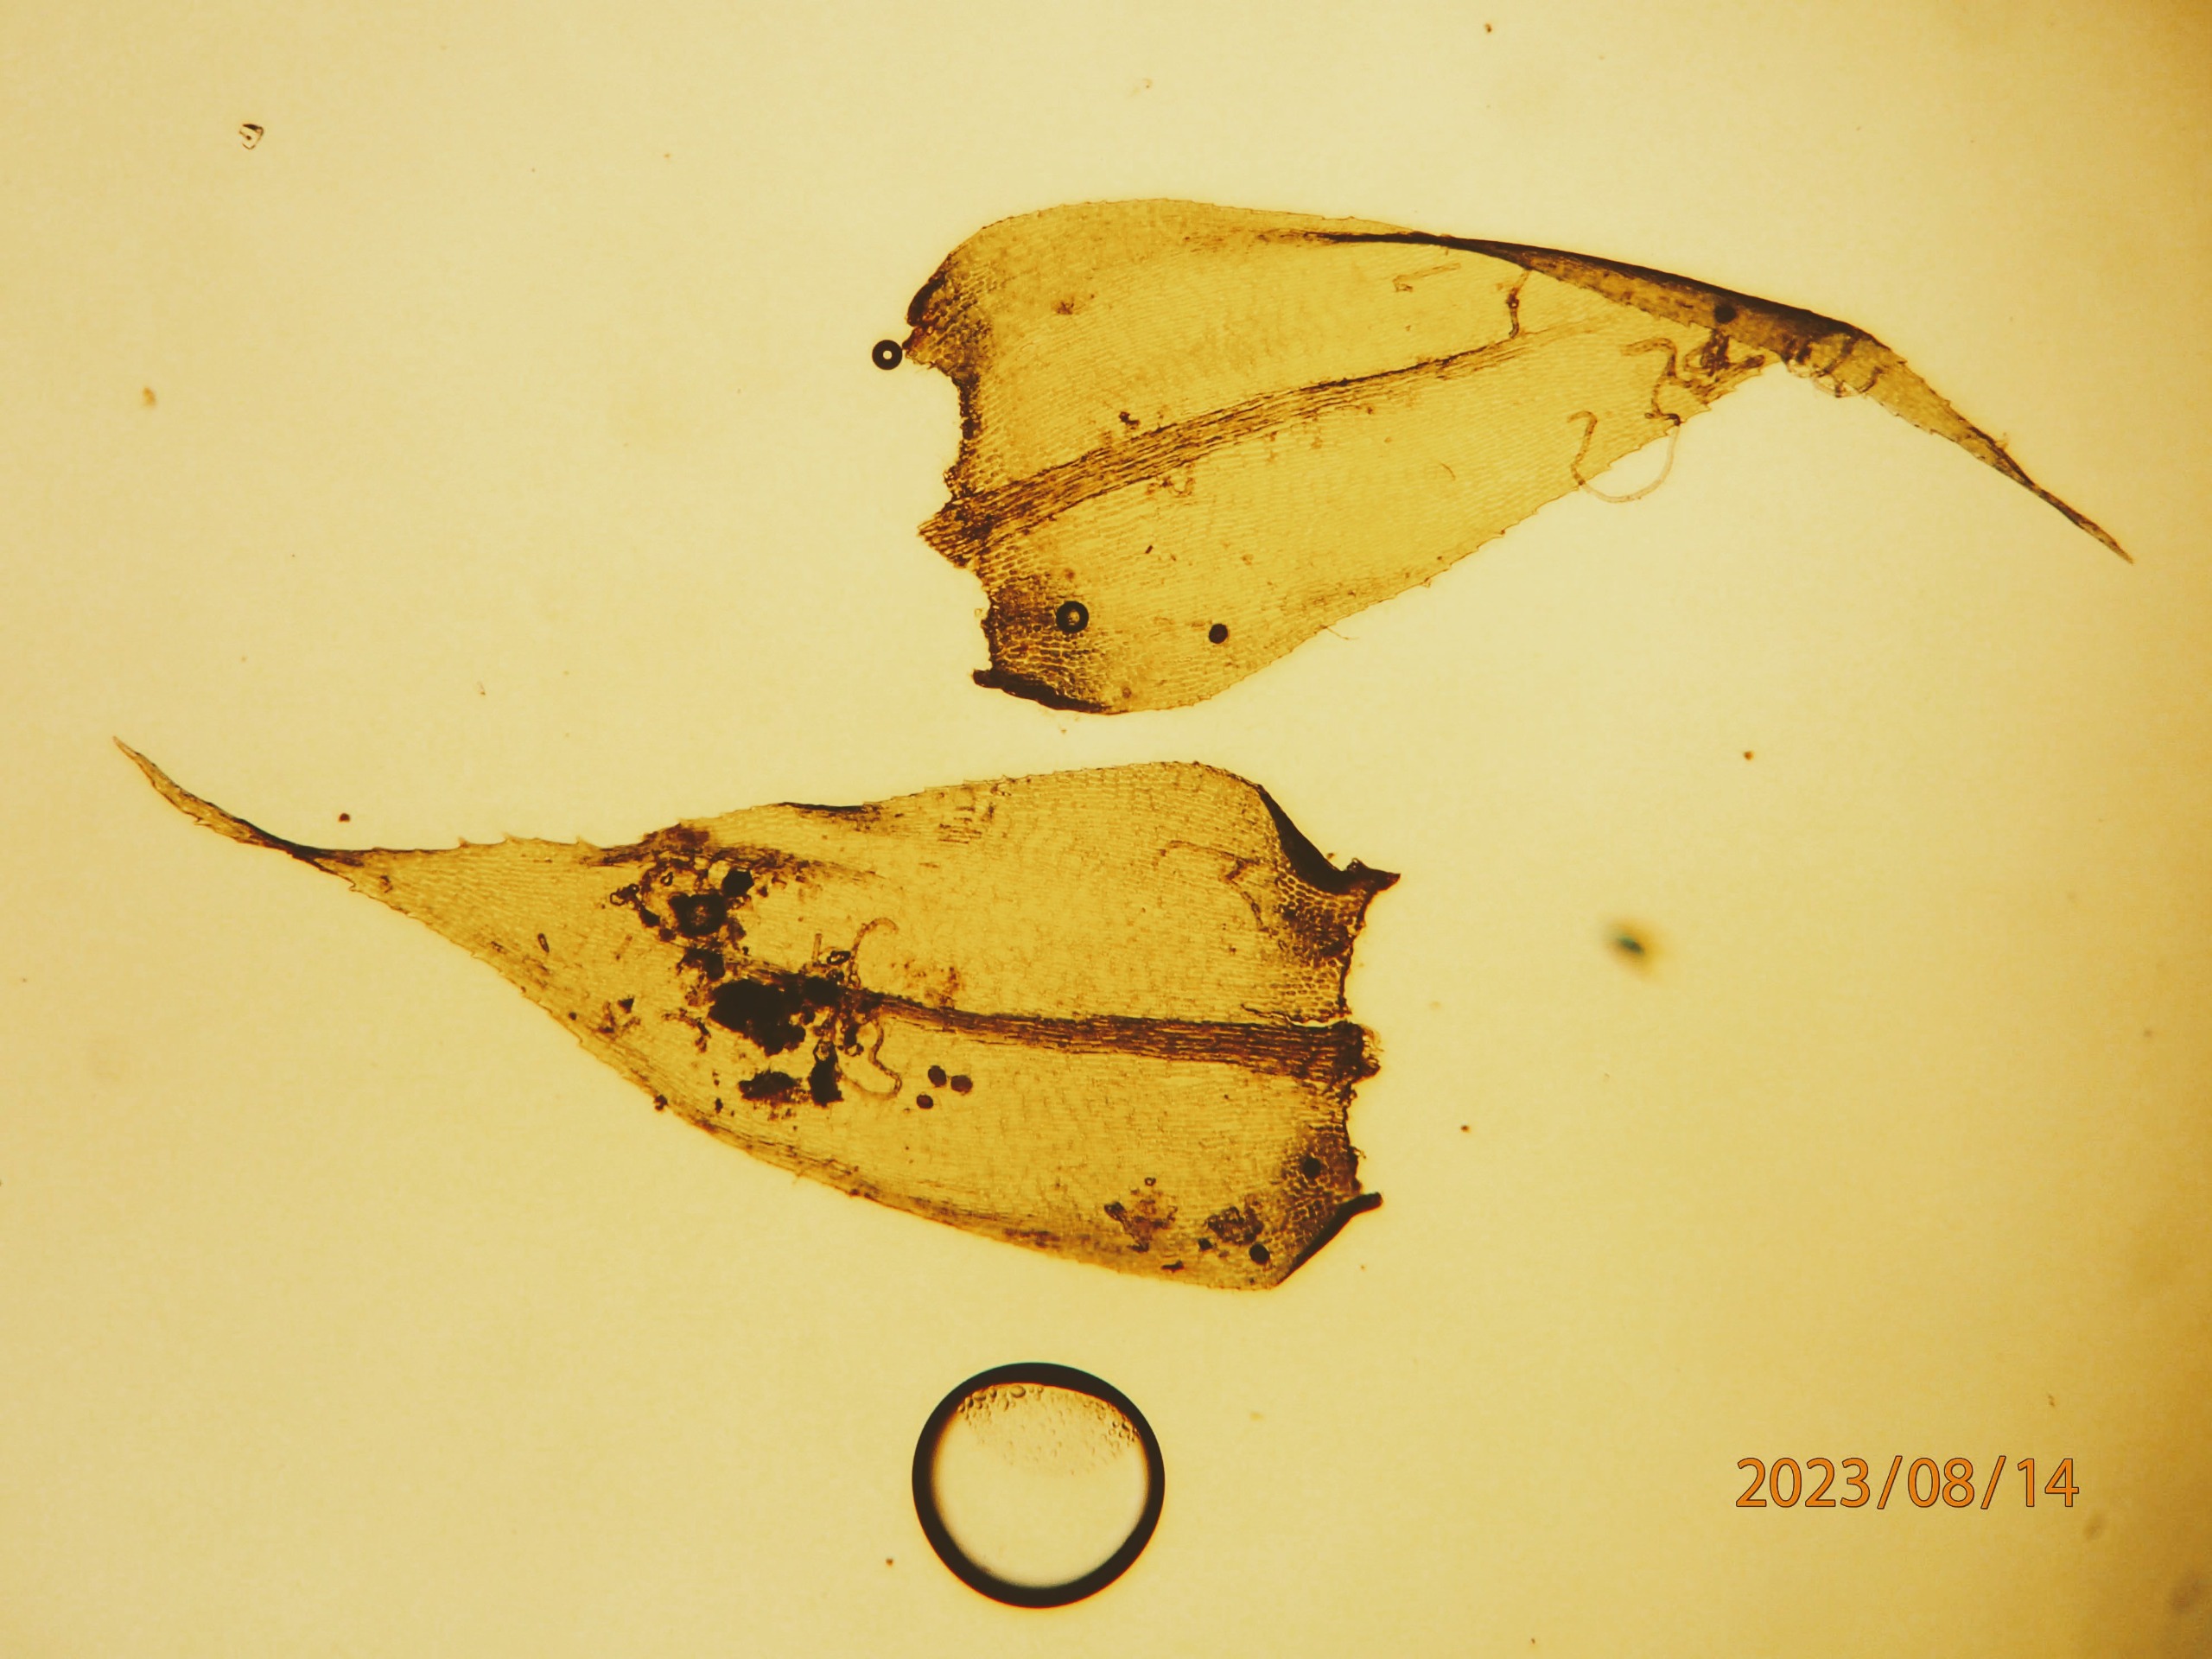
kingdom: Plantae
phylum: Bryophyta
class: Bryopsida
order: Hypnales
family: Lembophyllaceae
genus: Pseudisothecium
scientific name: Pseudisothecium myosuroides
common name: Slank stammemos
